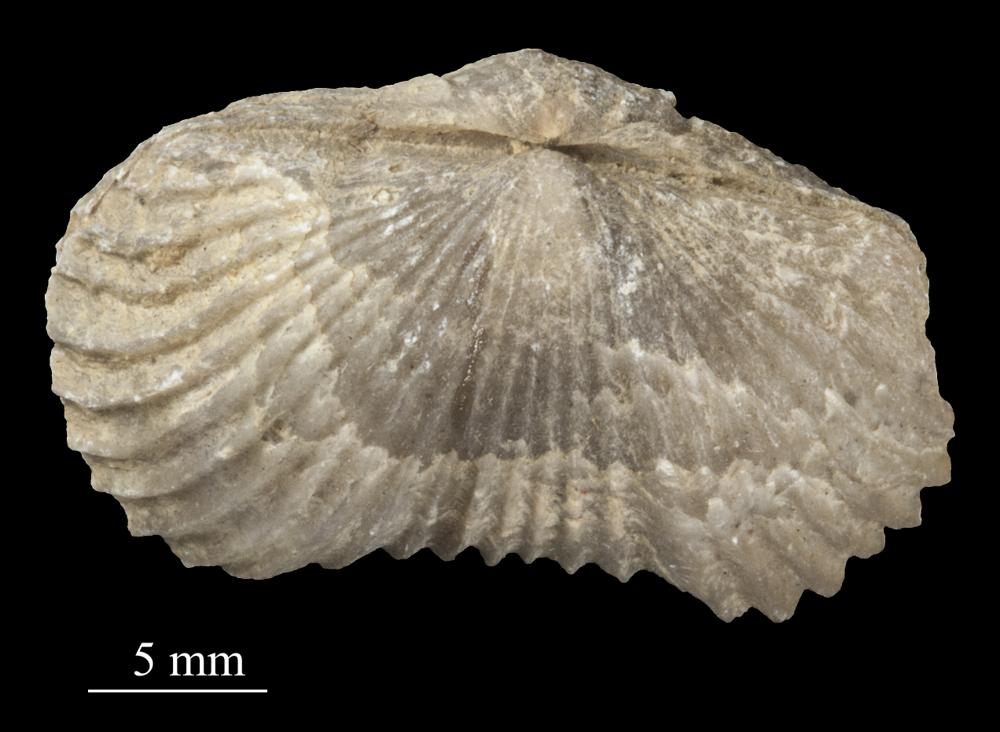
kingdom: Animalia
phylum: Brachiopoda
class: Rhynchonellata
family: Plectorthidae
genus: Platystrophia
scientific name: Platystrophia Terebratulites biforatus
